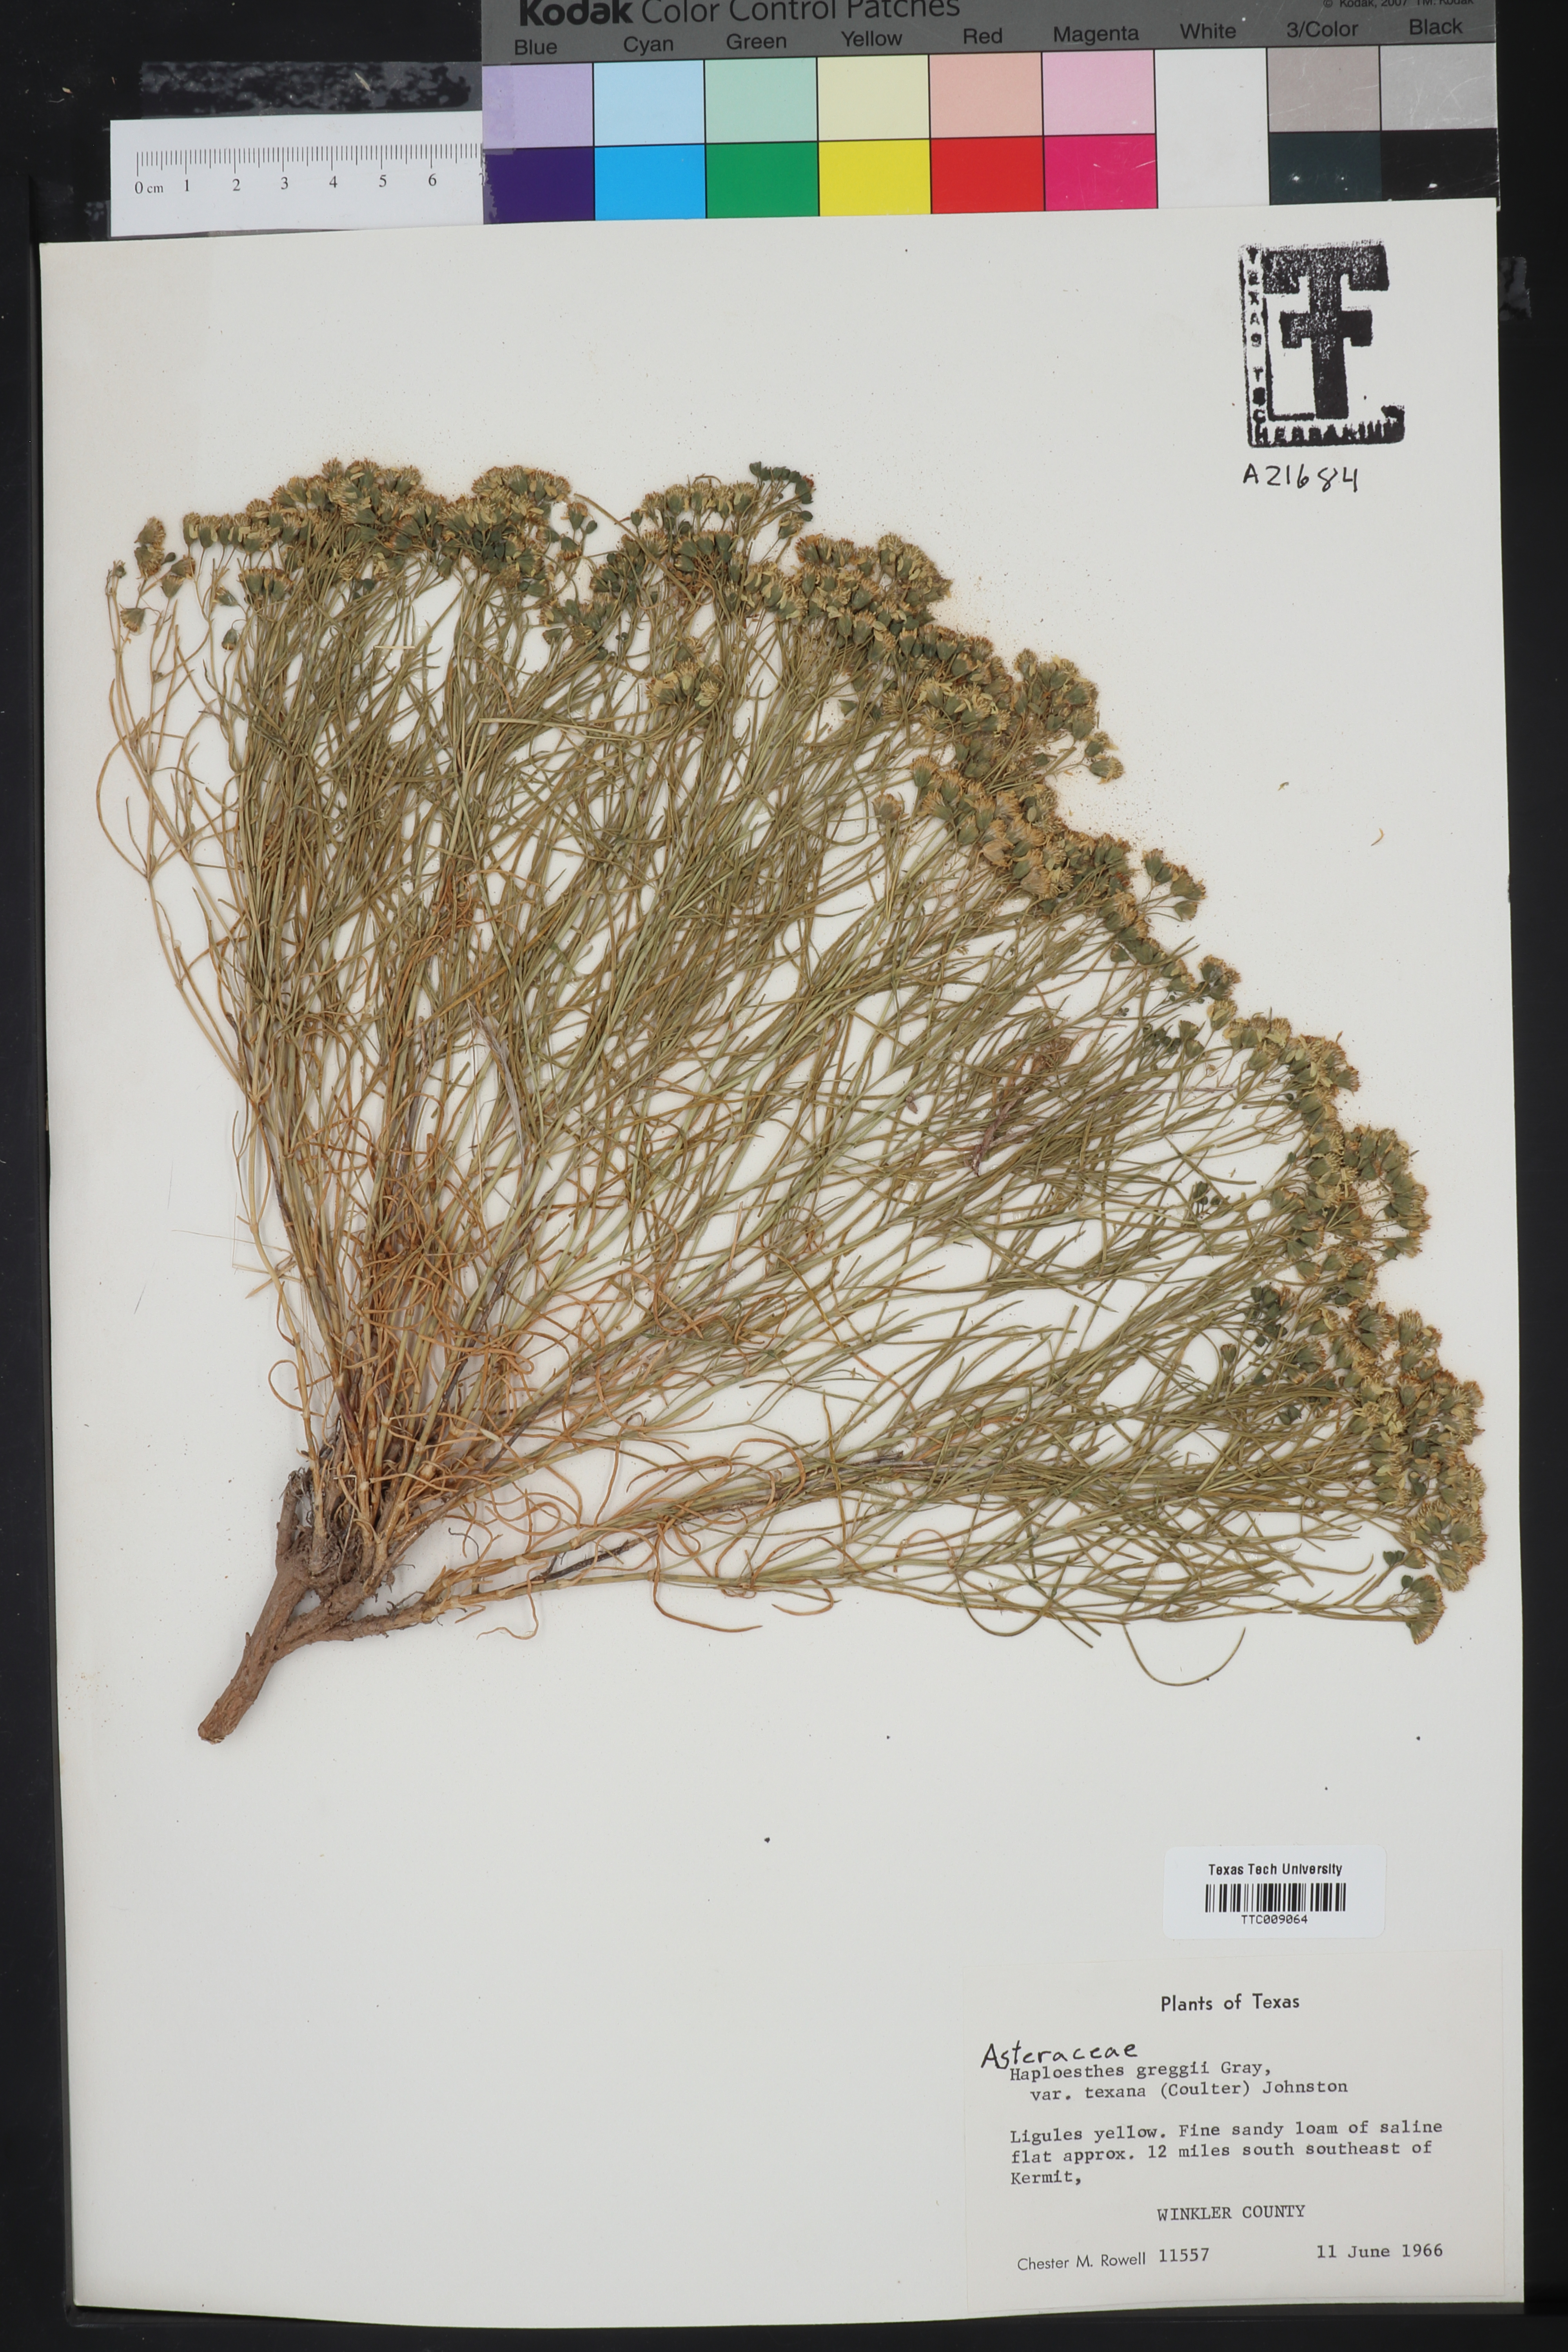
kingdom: Plantae
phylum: Tracheophyta
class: Magnoliopsida
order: Asterales
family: Asteraceae
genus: Haploesthes
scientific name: Haploesthes greggii
